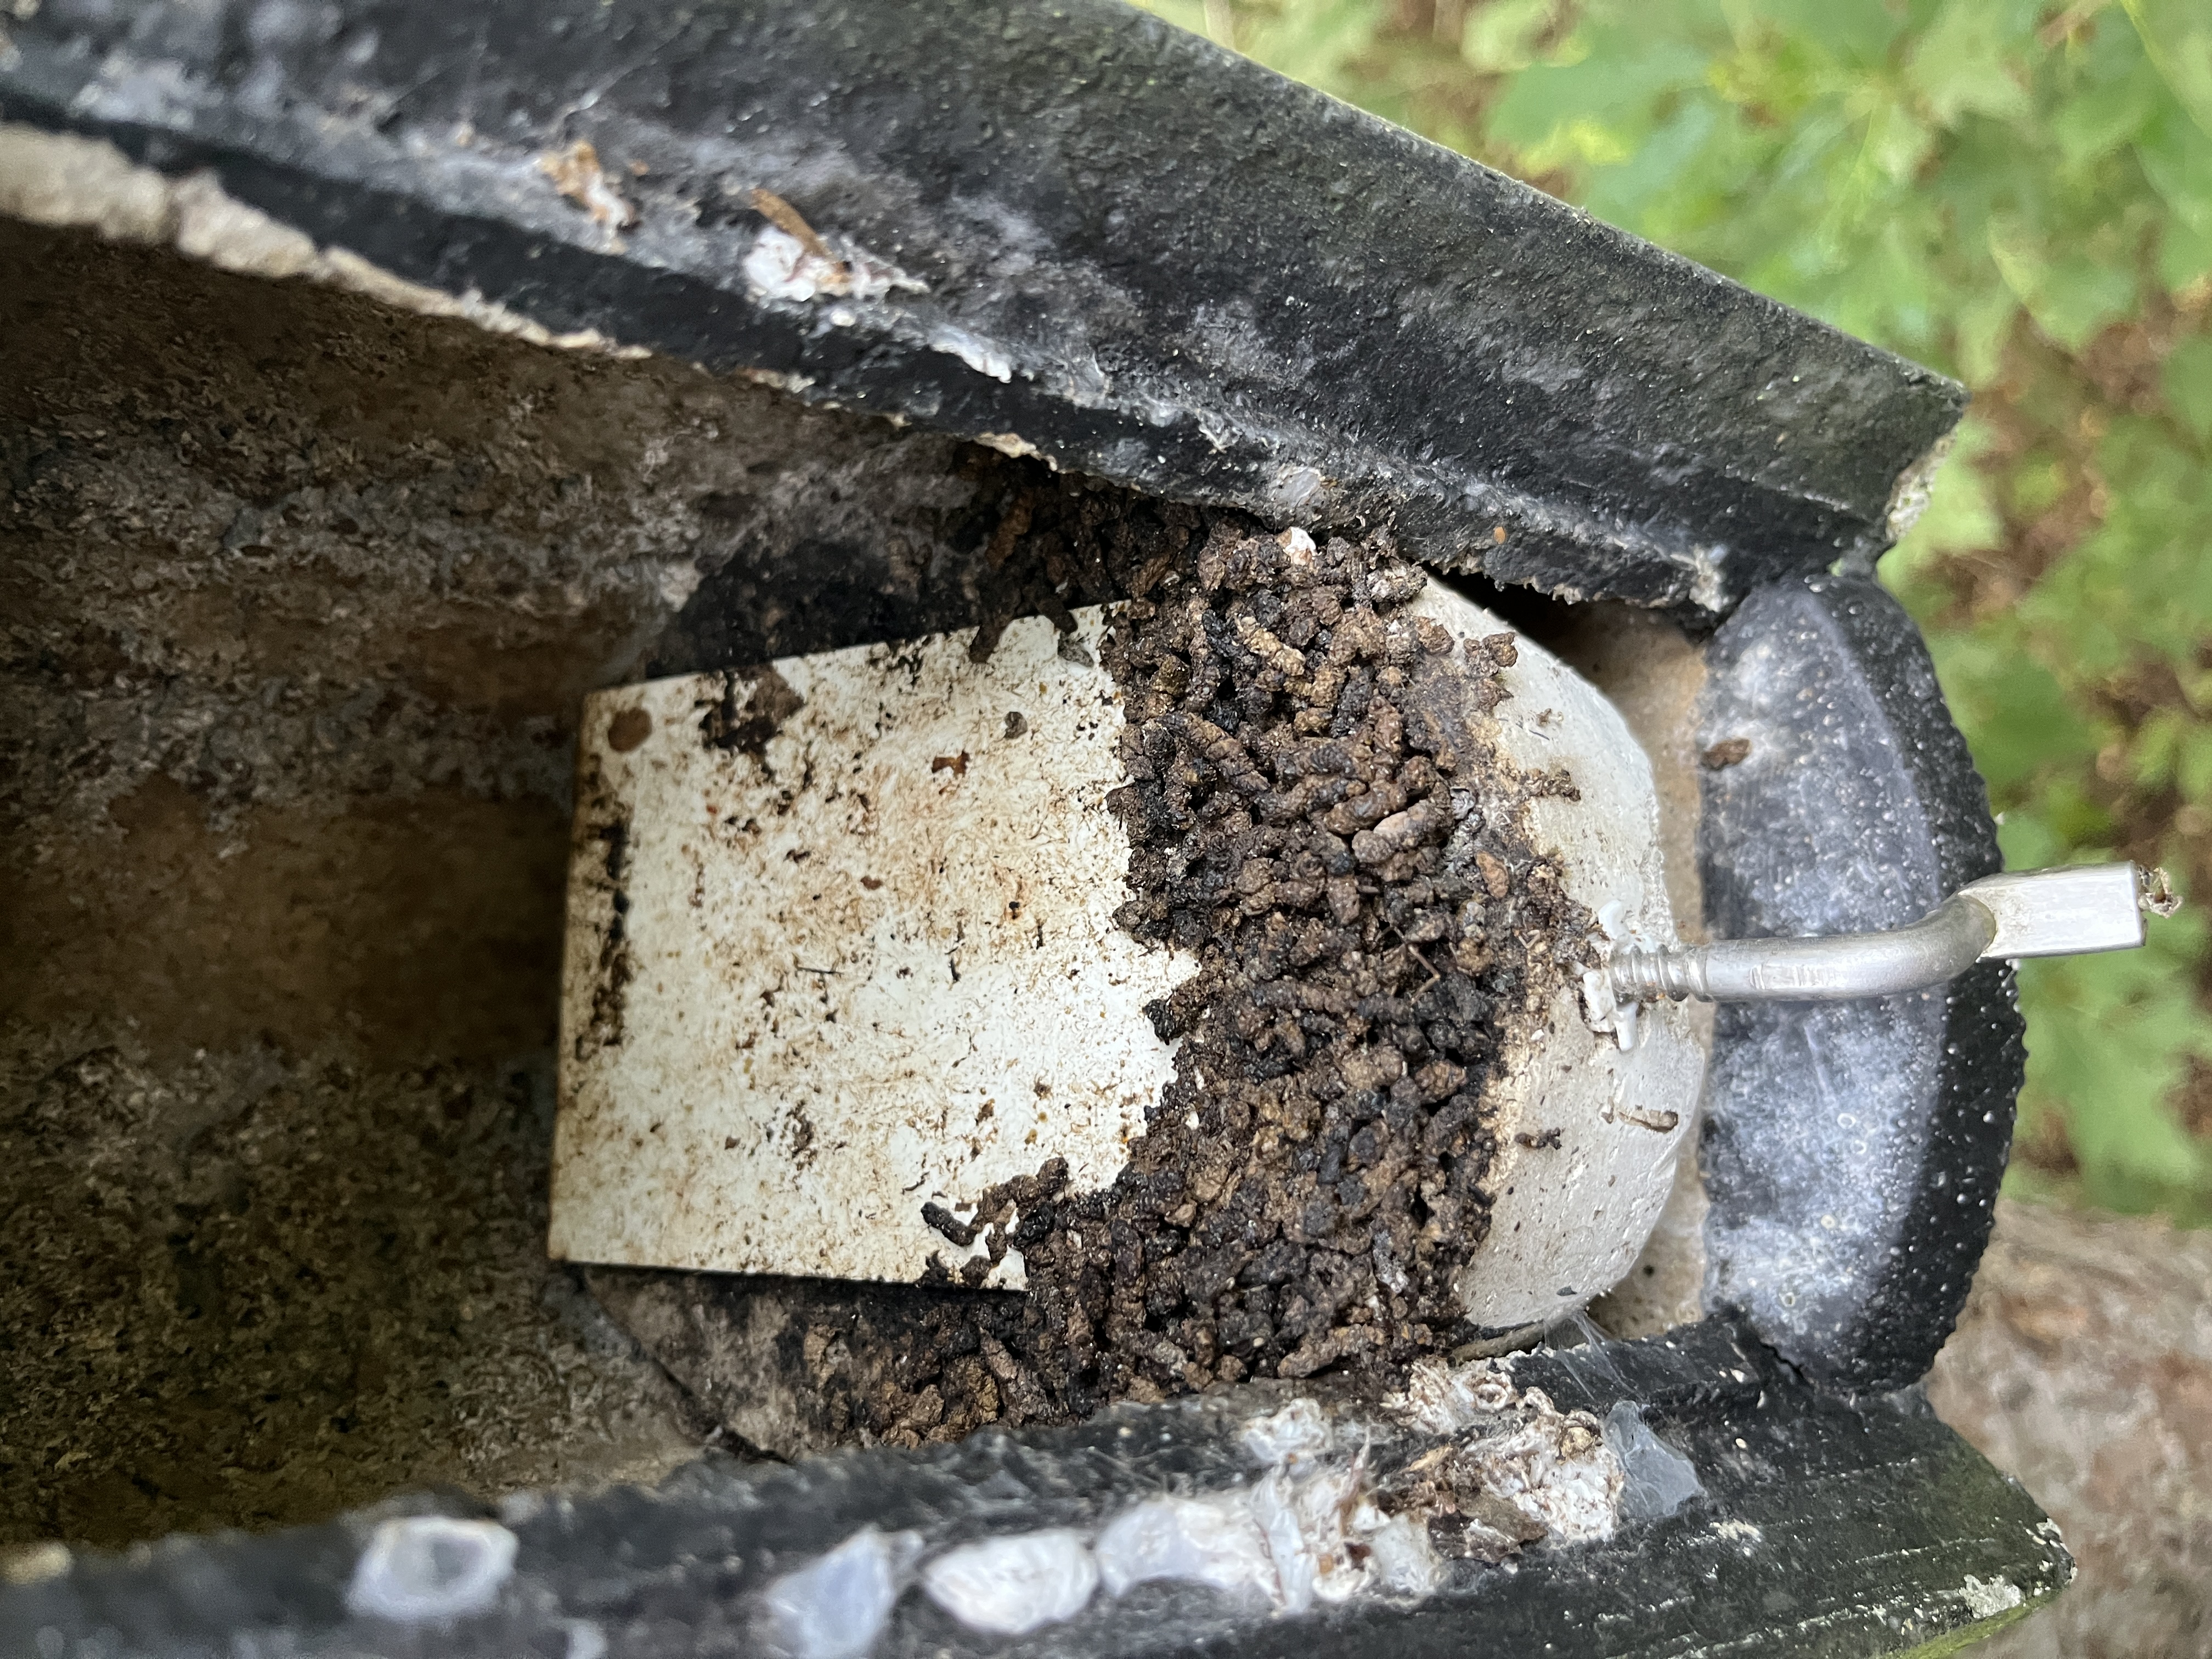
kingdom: Animalia
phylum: Chordata
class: Mammalia
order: Chiroptera
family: Vespertilionidae
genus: Plecotus
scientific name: Plecotus
